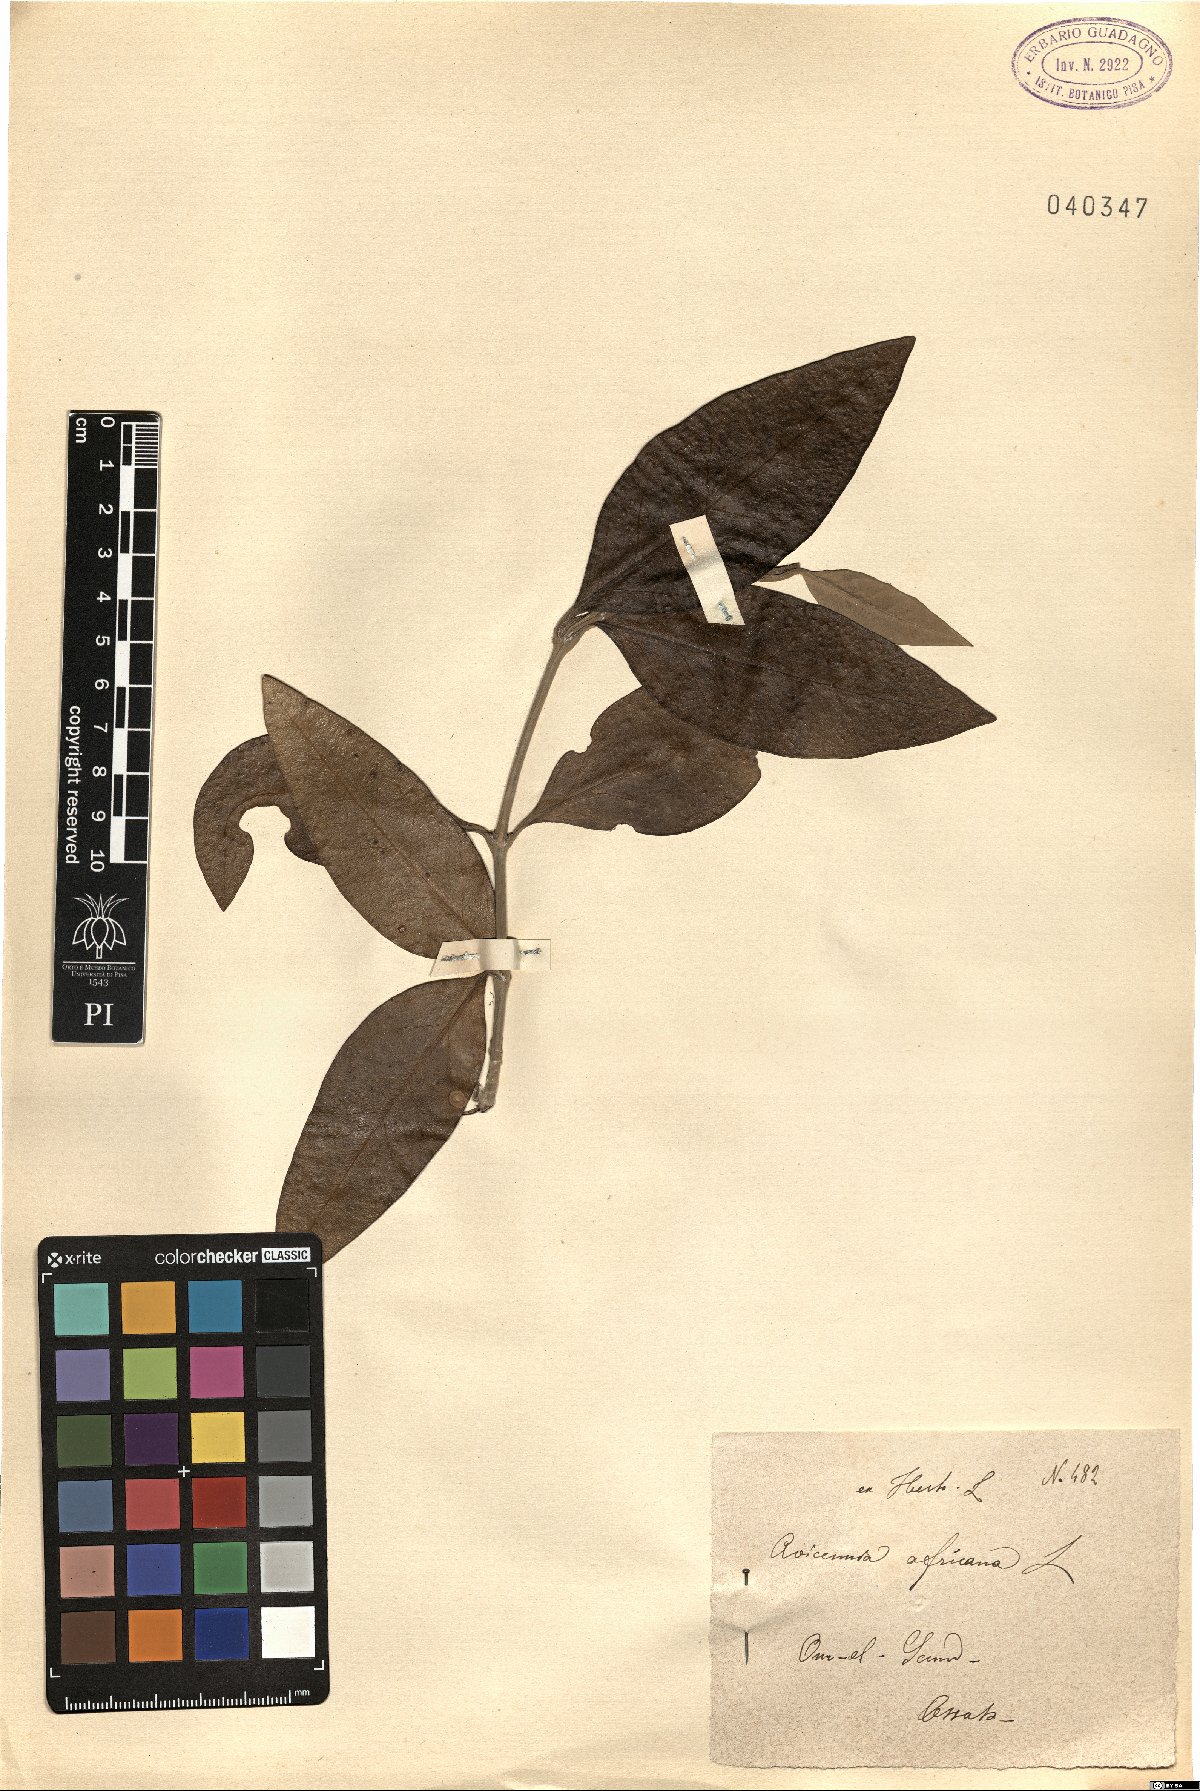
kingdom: Plantae
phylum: Tracheophyta
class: Magnoliopsida
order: Lamiales
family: Acanthaceae
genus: Avicennia
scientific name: Avicennia germinans
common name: Black mangrove
